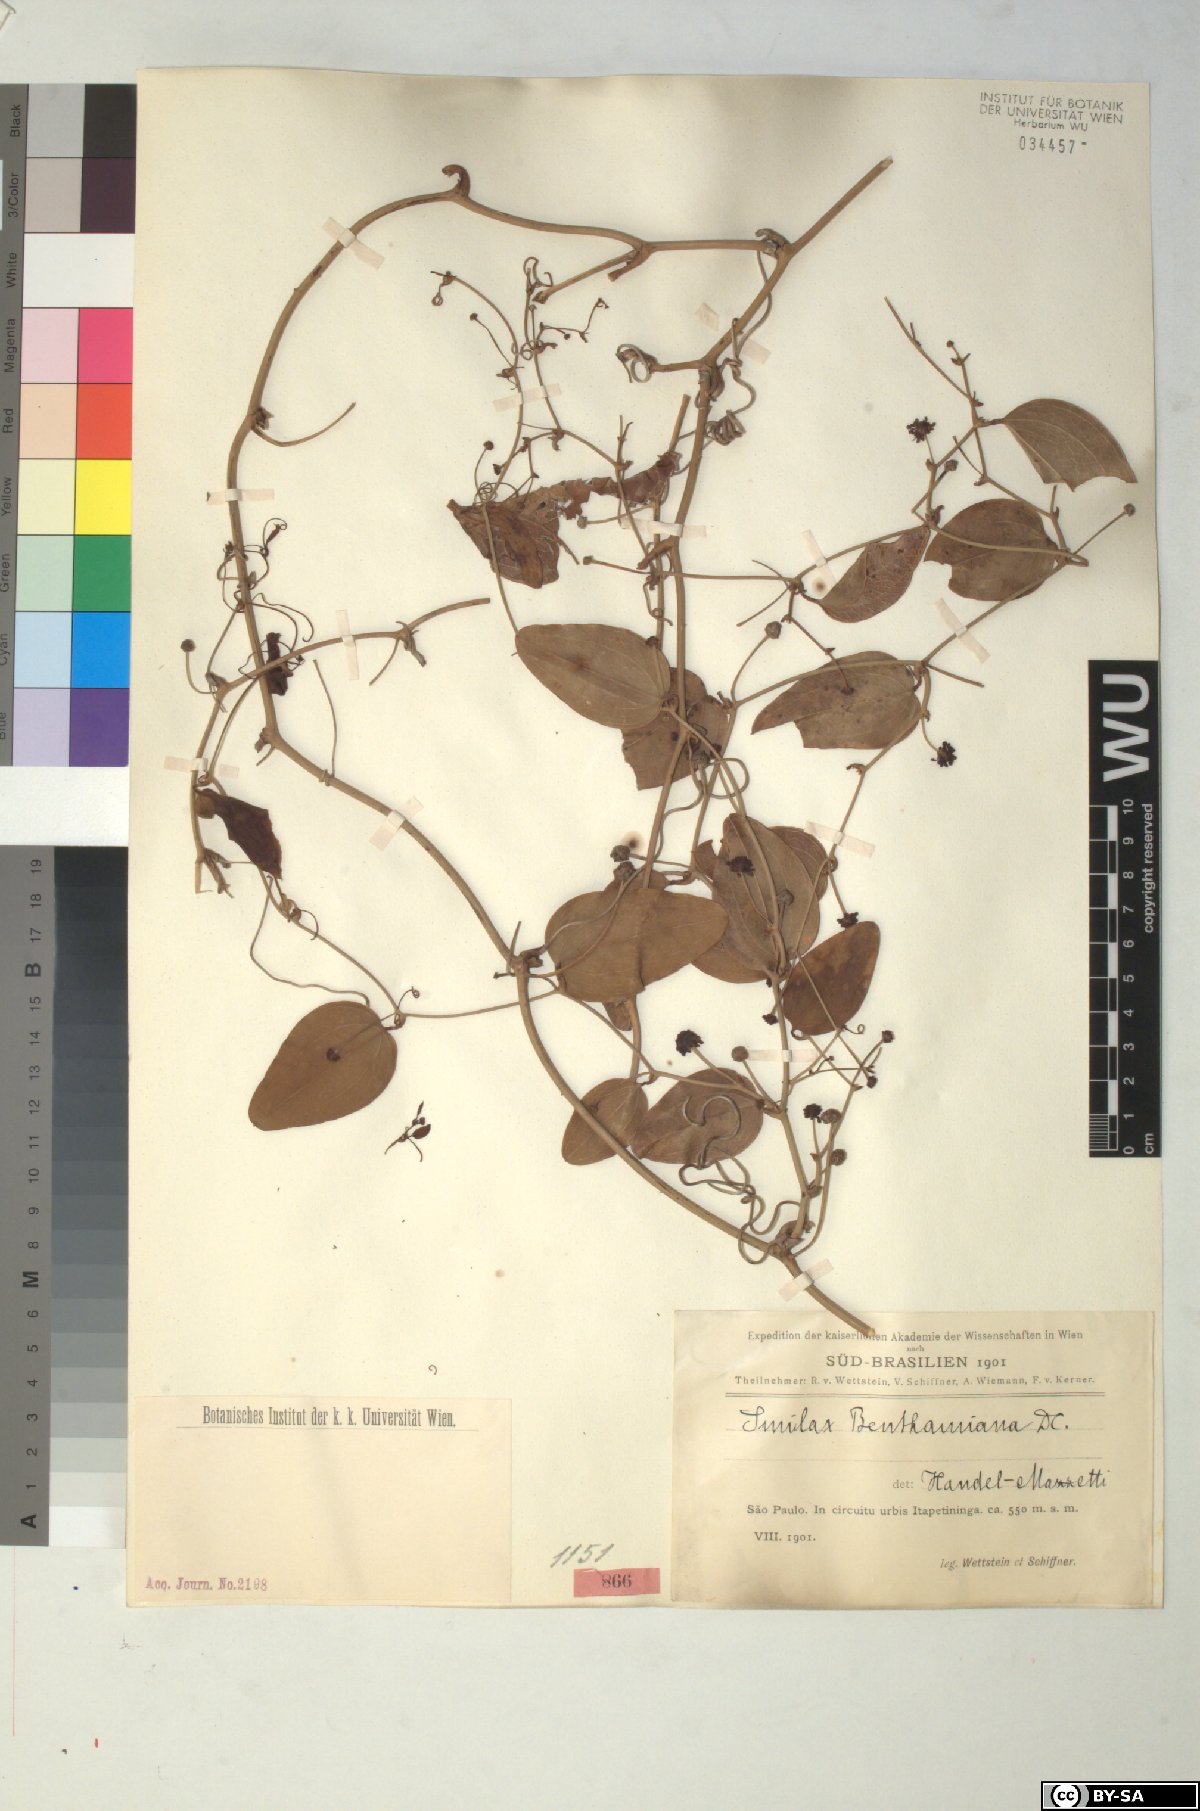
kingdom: Plantae
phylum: Tracheophyta
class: Liliopsida
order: Liliales
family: Smilacaceae
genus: Smilax
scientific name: Smilax irrorata
